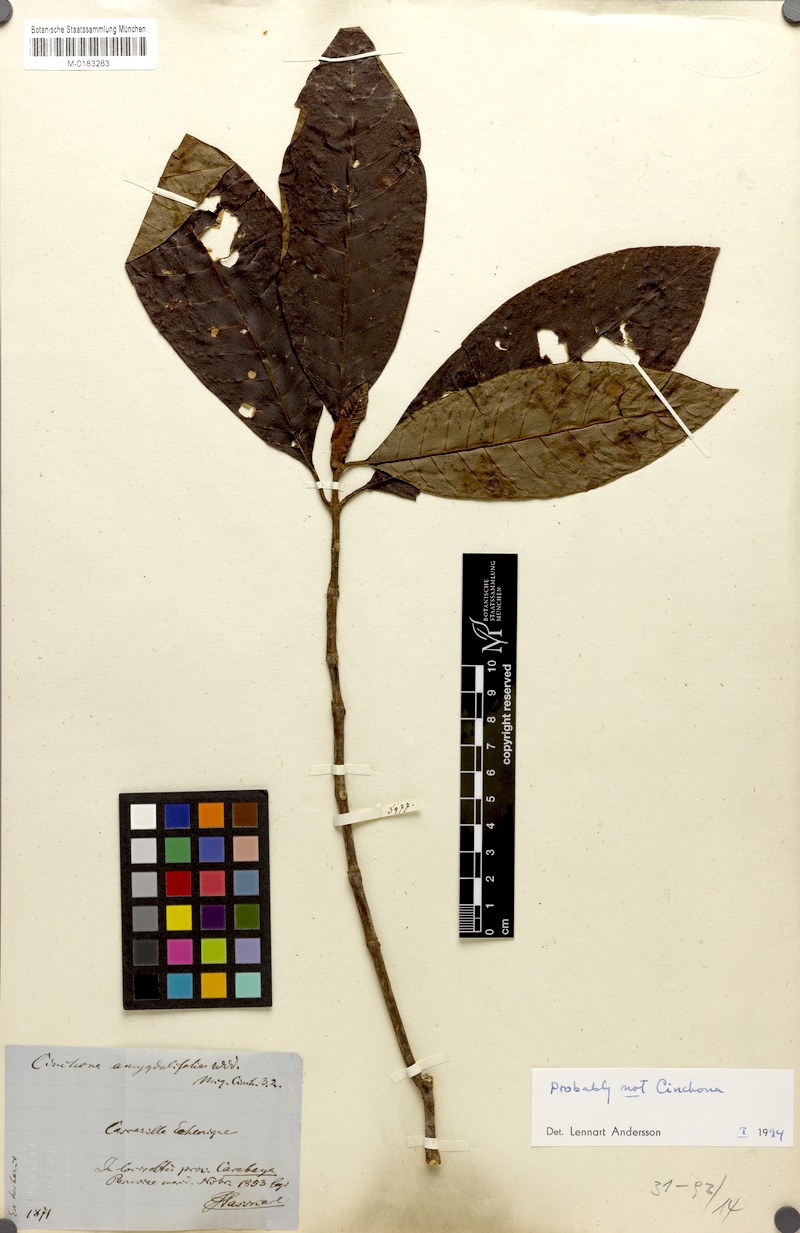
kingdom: Plantae
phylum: Tracheophyta
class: Magnoliopsida
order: Gentianales
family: Rubiaceae
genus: Cinchona
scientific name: Cinchona calisaya
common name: Ledgerbark
